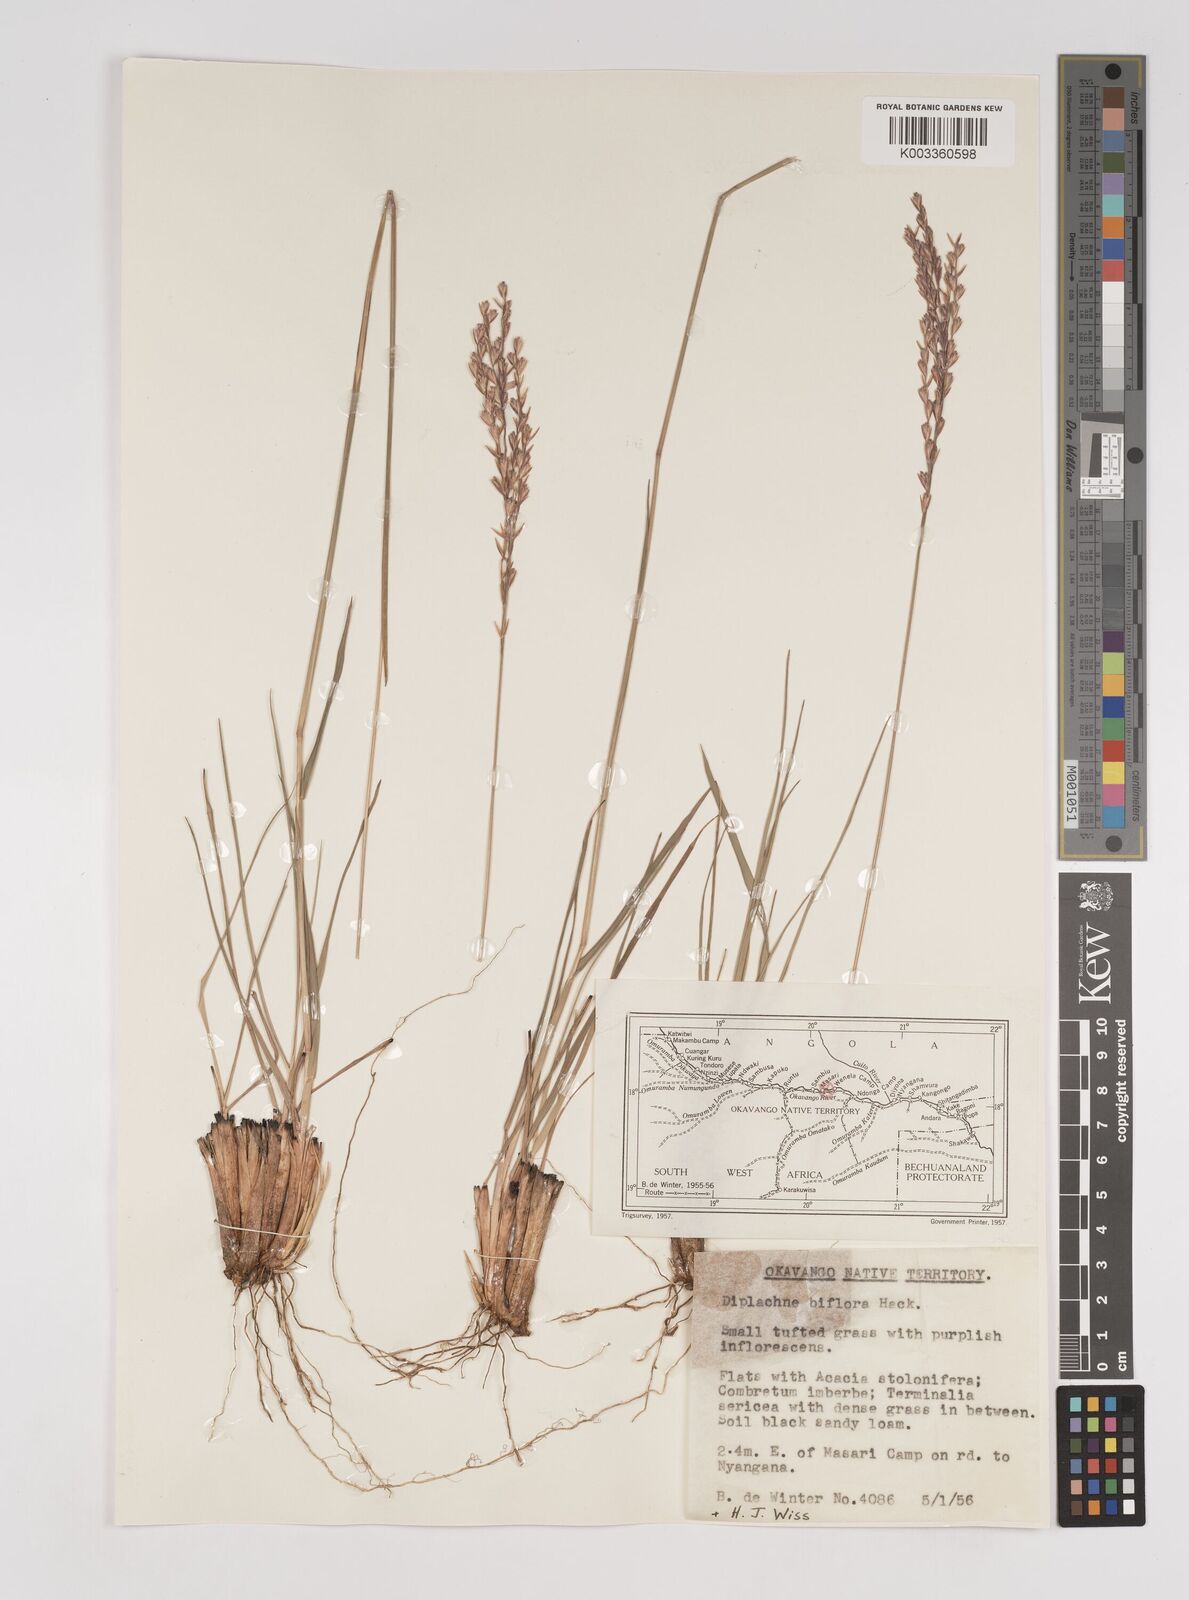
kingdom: Plantae
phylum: Tracheophyta
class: Liliopsida
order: Poales
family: Poaceae
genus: Bewsia
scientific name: Bewsia biflora
